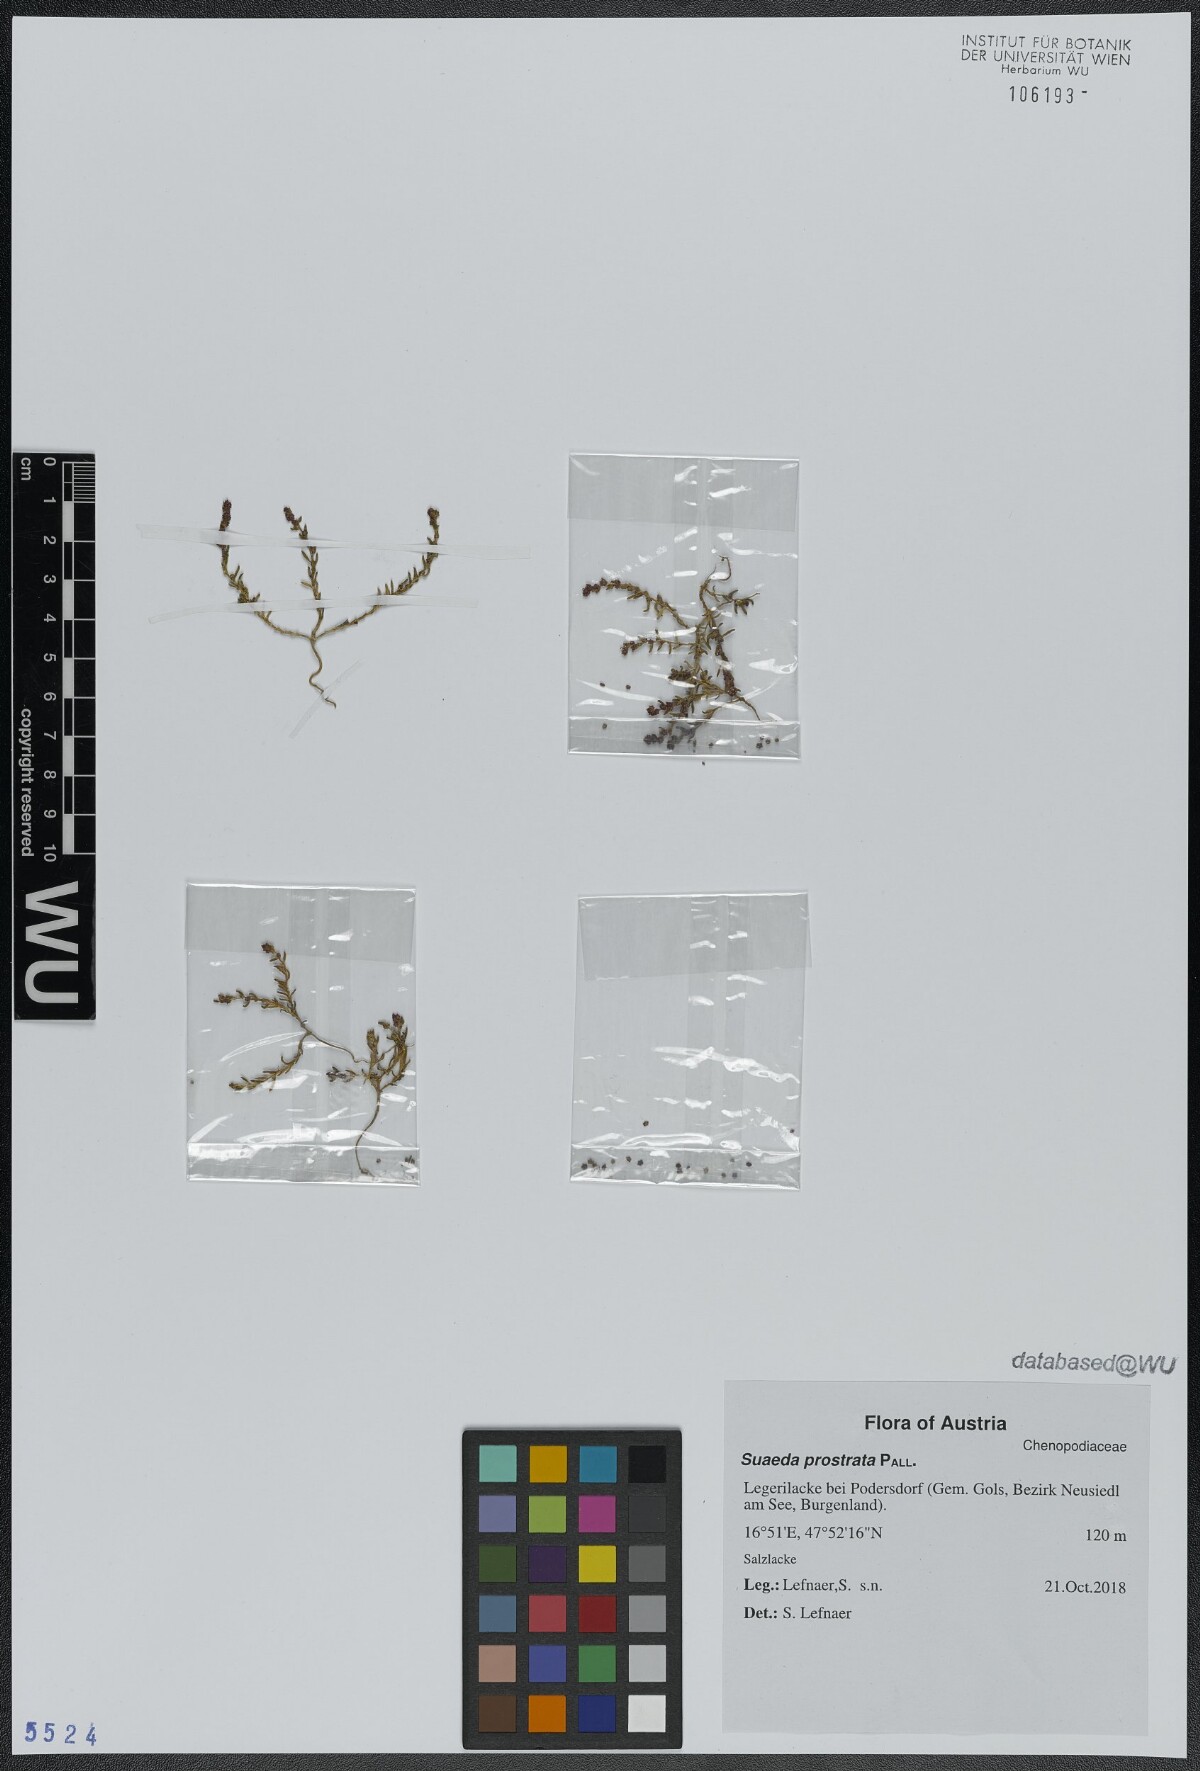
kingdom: Plantae
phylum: Tracheophyta
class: Magnoliopsida
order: Caryophyllales
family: Amaranthaceae
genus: Suaeda
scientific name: Suaeda prostrata
